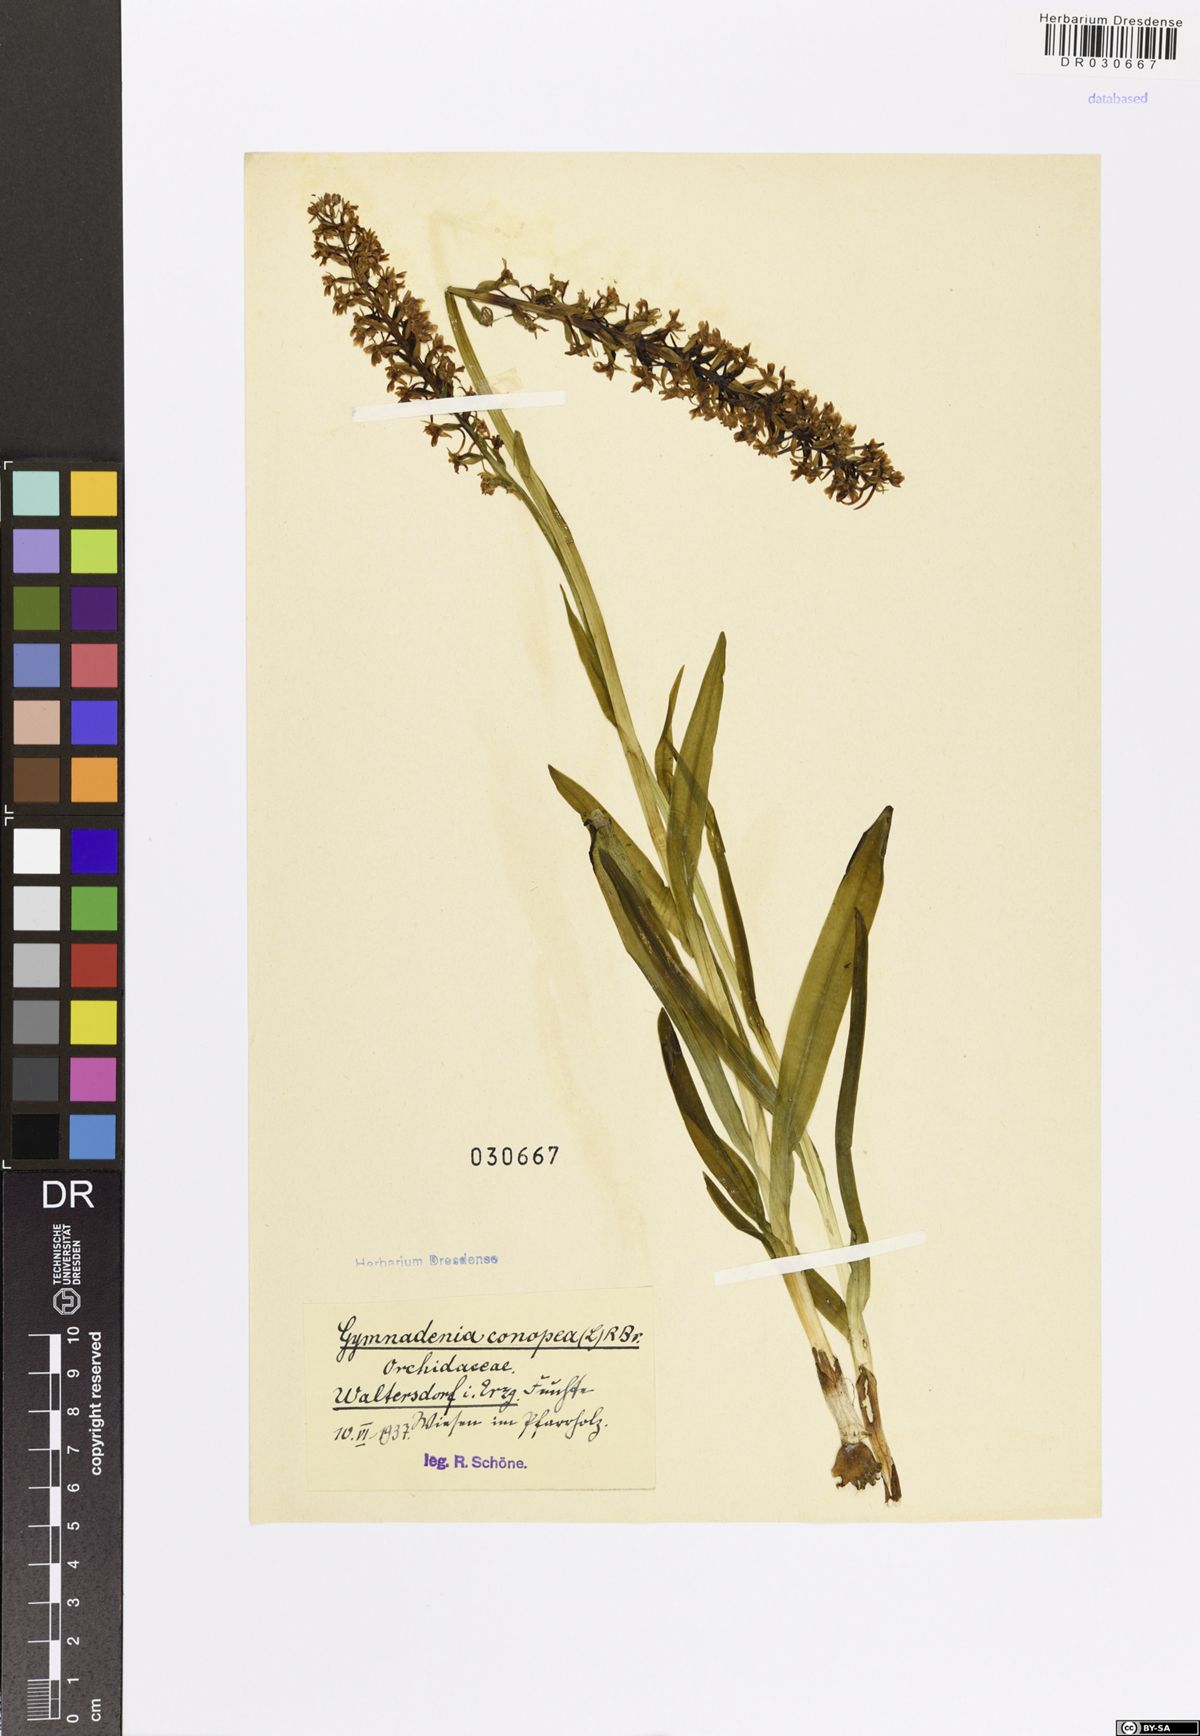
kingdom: Plantae
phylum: Tracheophyta
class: Liliopsida
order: Asparagales
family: Orchidaceae
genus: Gymnadenia
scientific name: Gymnadenia conopsea
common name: Fragrant orchid
